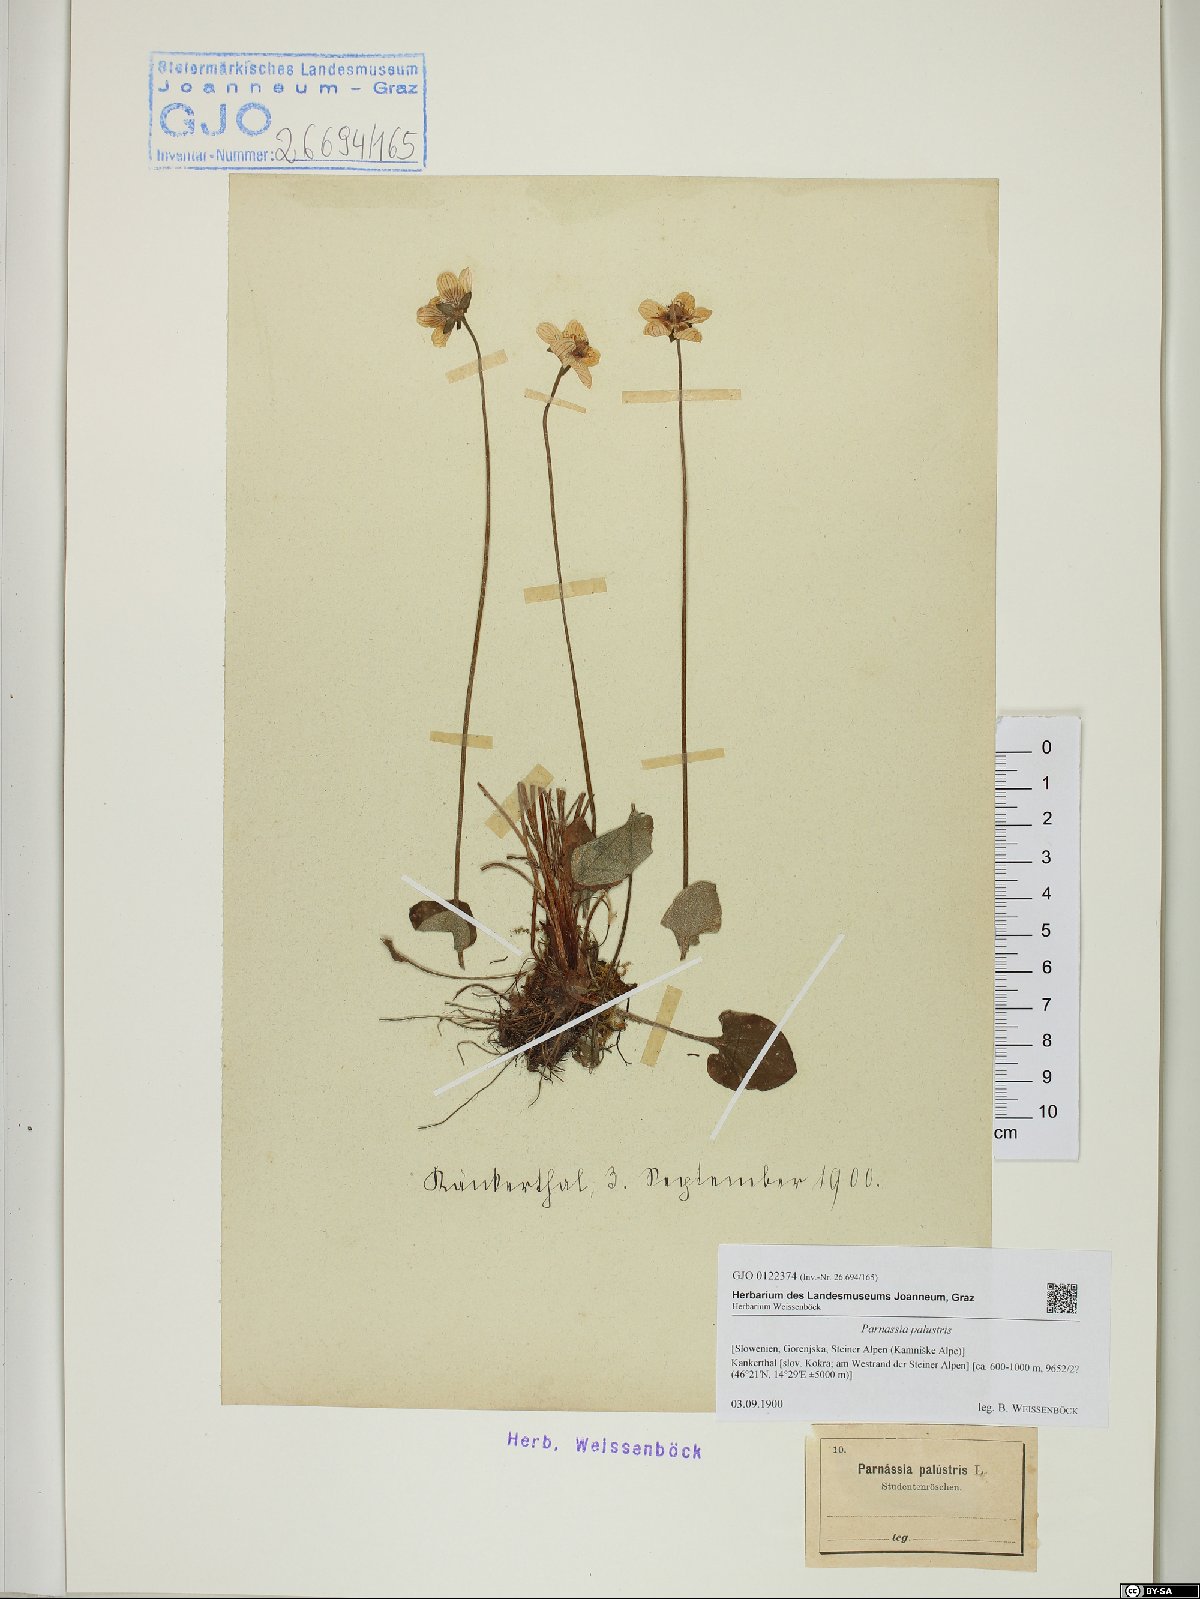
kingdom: Plantae
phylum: Tracheophyta
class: Magnoliopsida
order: Celastrales
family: Parnassiaceae
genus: Parnassia
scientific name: Parnassia palustris
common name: Grass-of-parnassus
